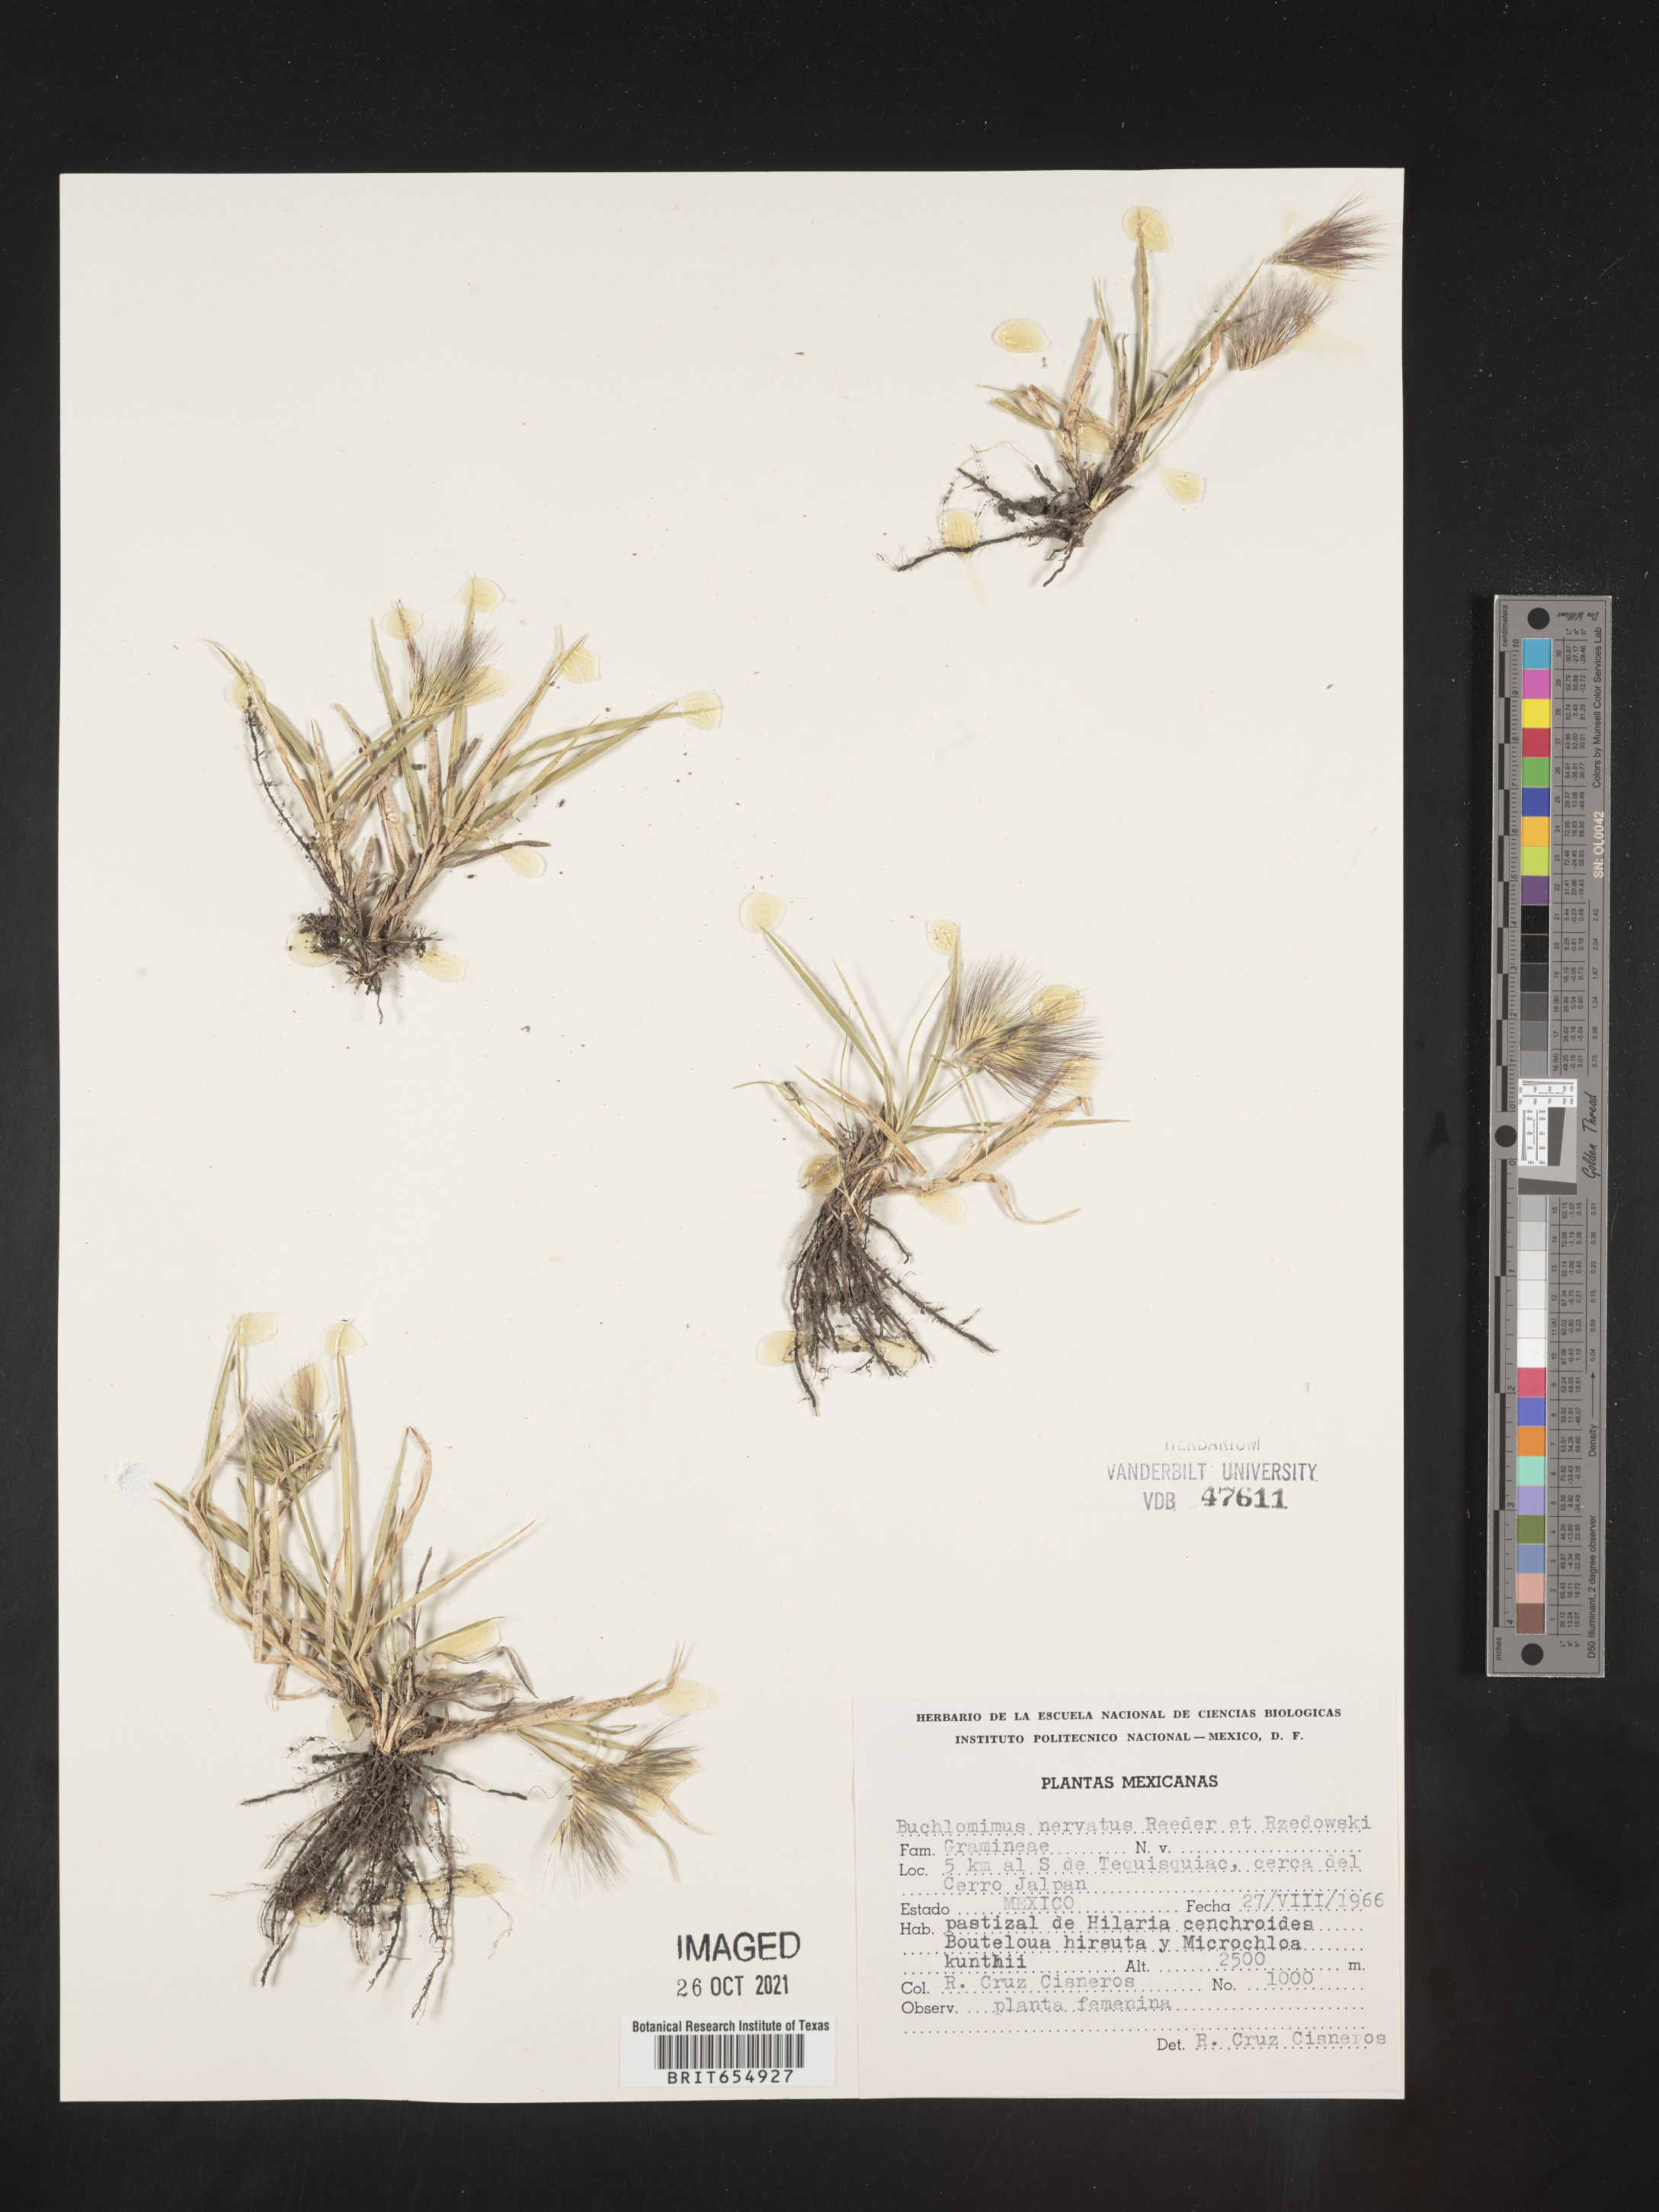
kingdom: Plantae
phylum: Tracheophyta
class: Liliopsida
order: Poales
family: Poaceae
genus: Bouteloua
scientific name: Bouteloua
